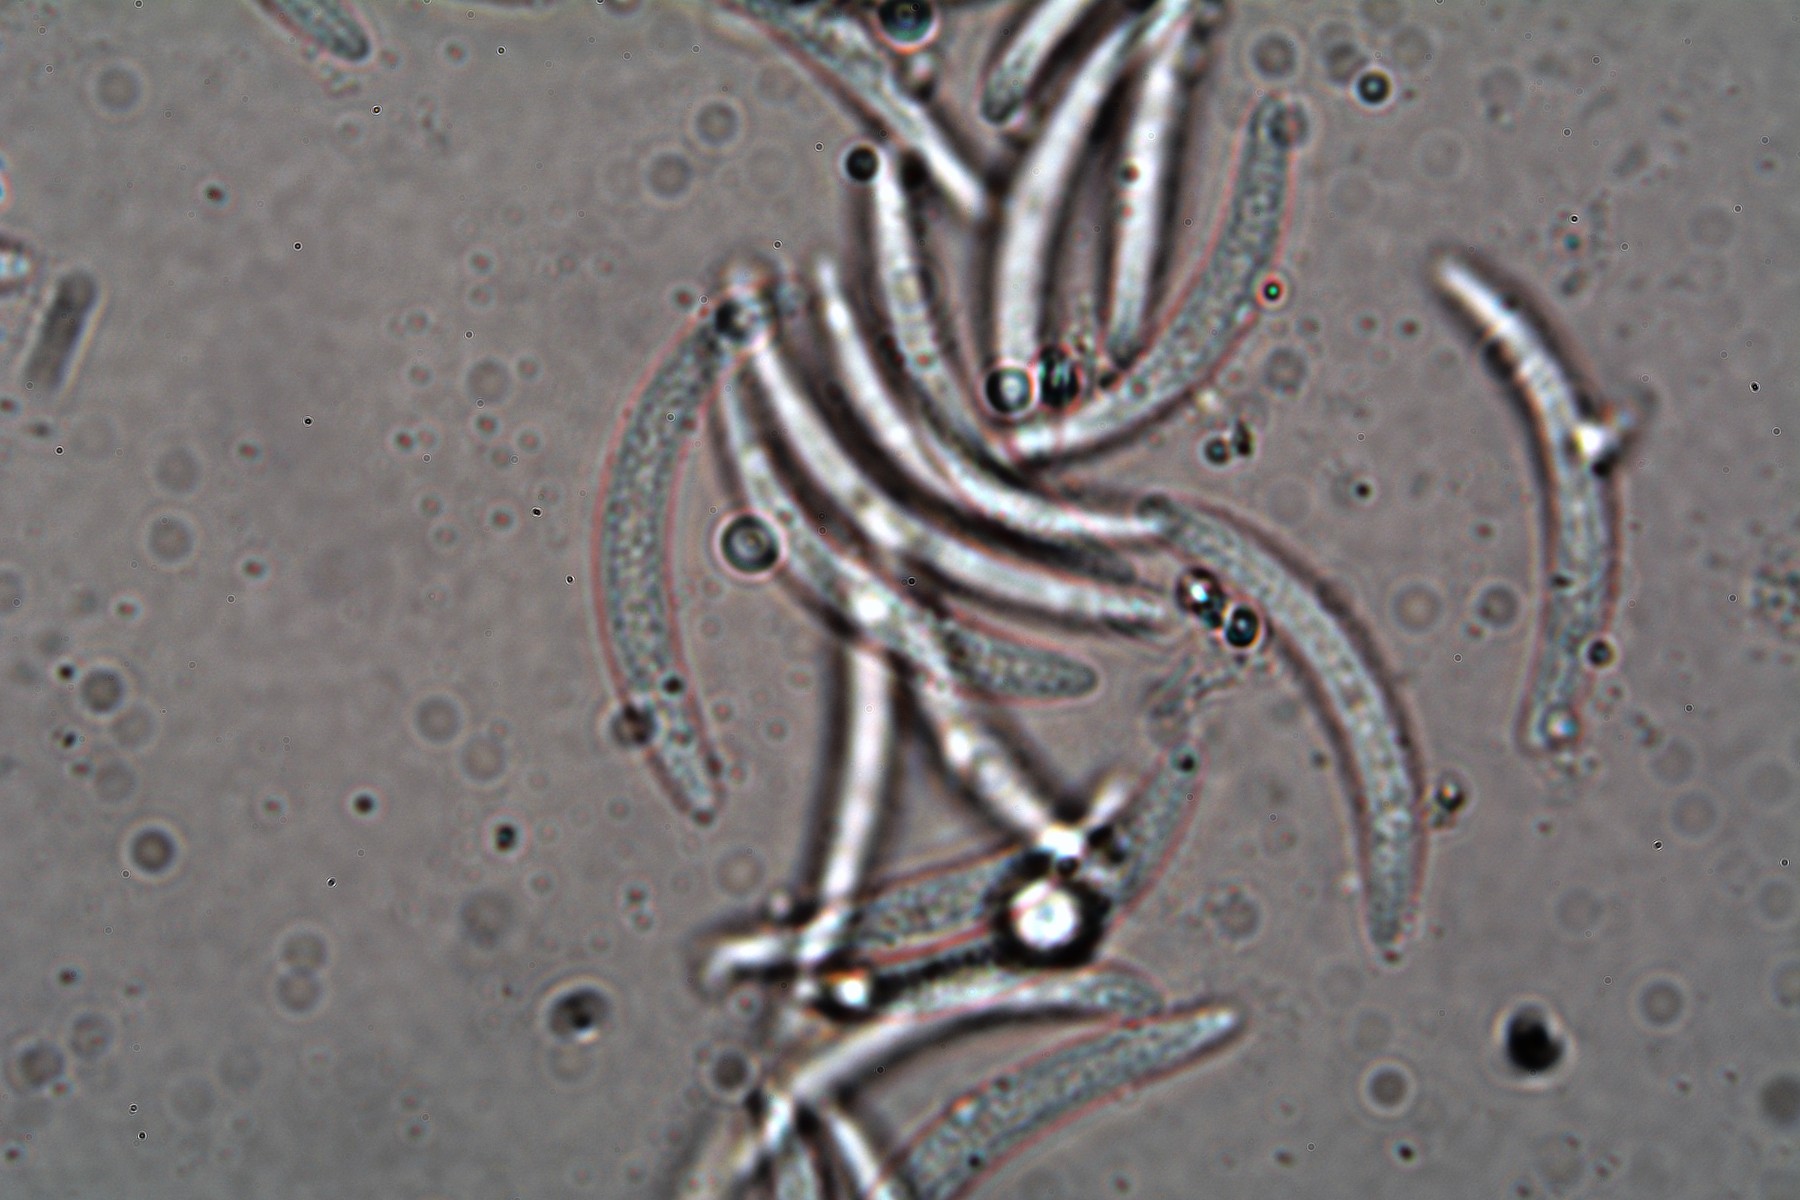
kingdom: Fungi
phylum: Ascomycota
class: Leotiomycetes
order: Helotiales
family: Dermateaceae
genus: Dermea
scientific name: Dermea prunastri
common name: blomme-klyngeskive
